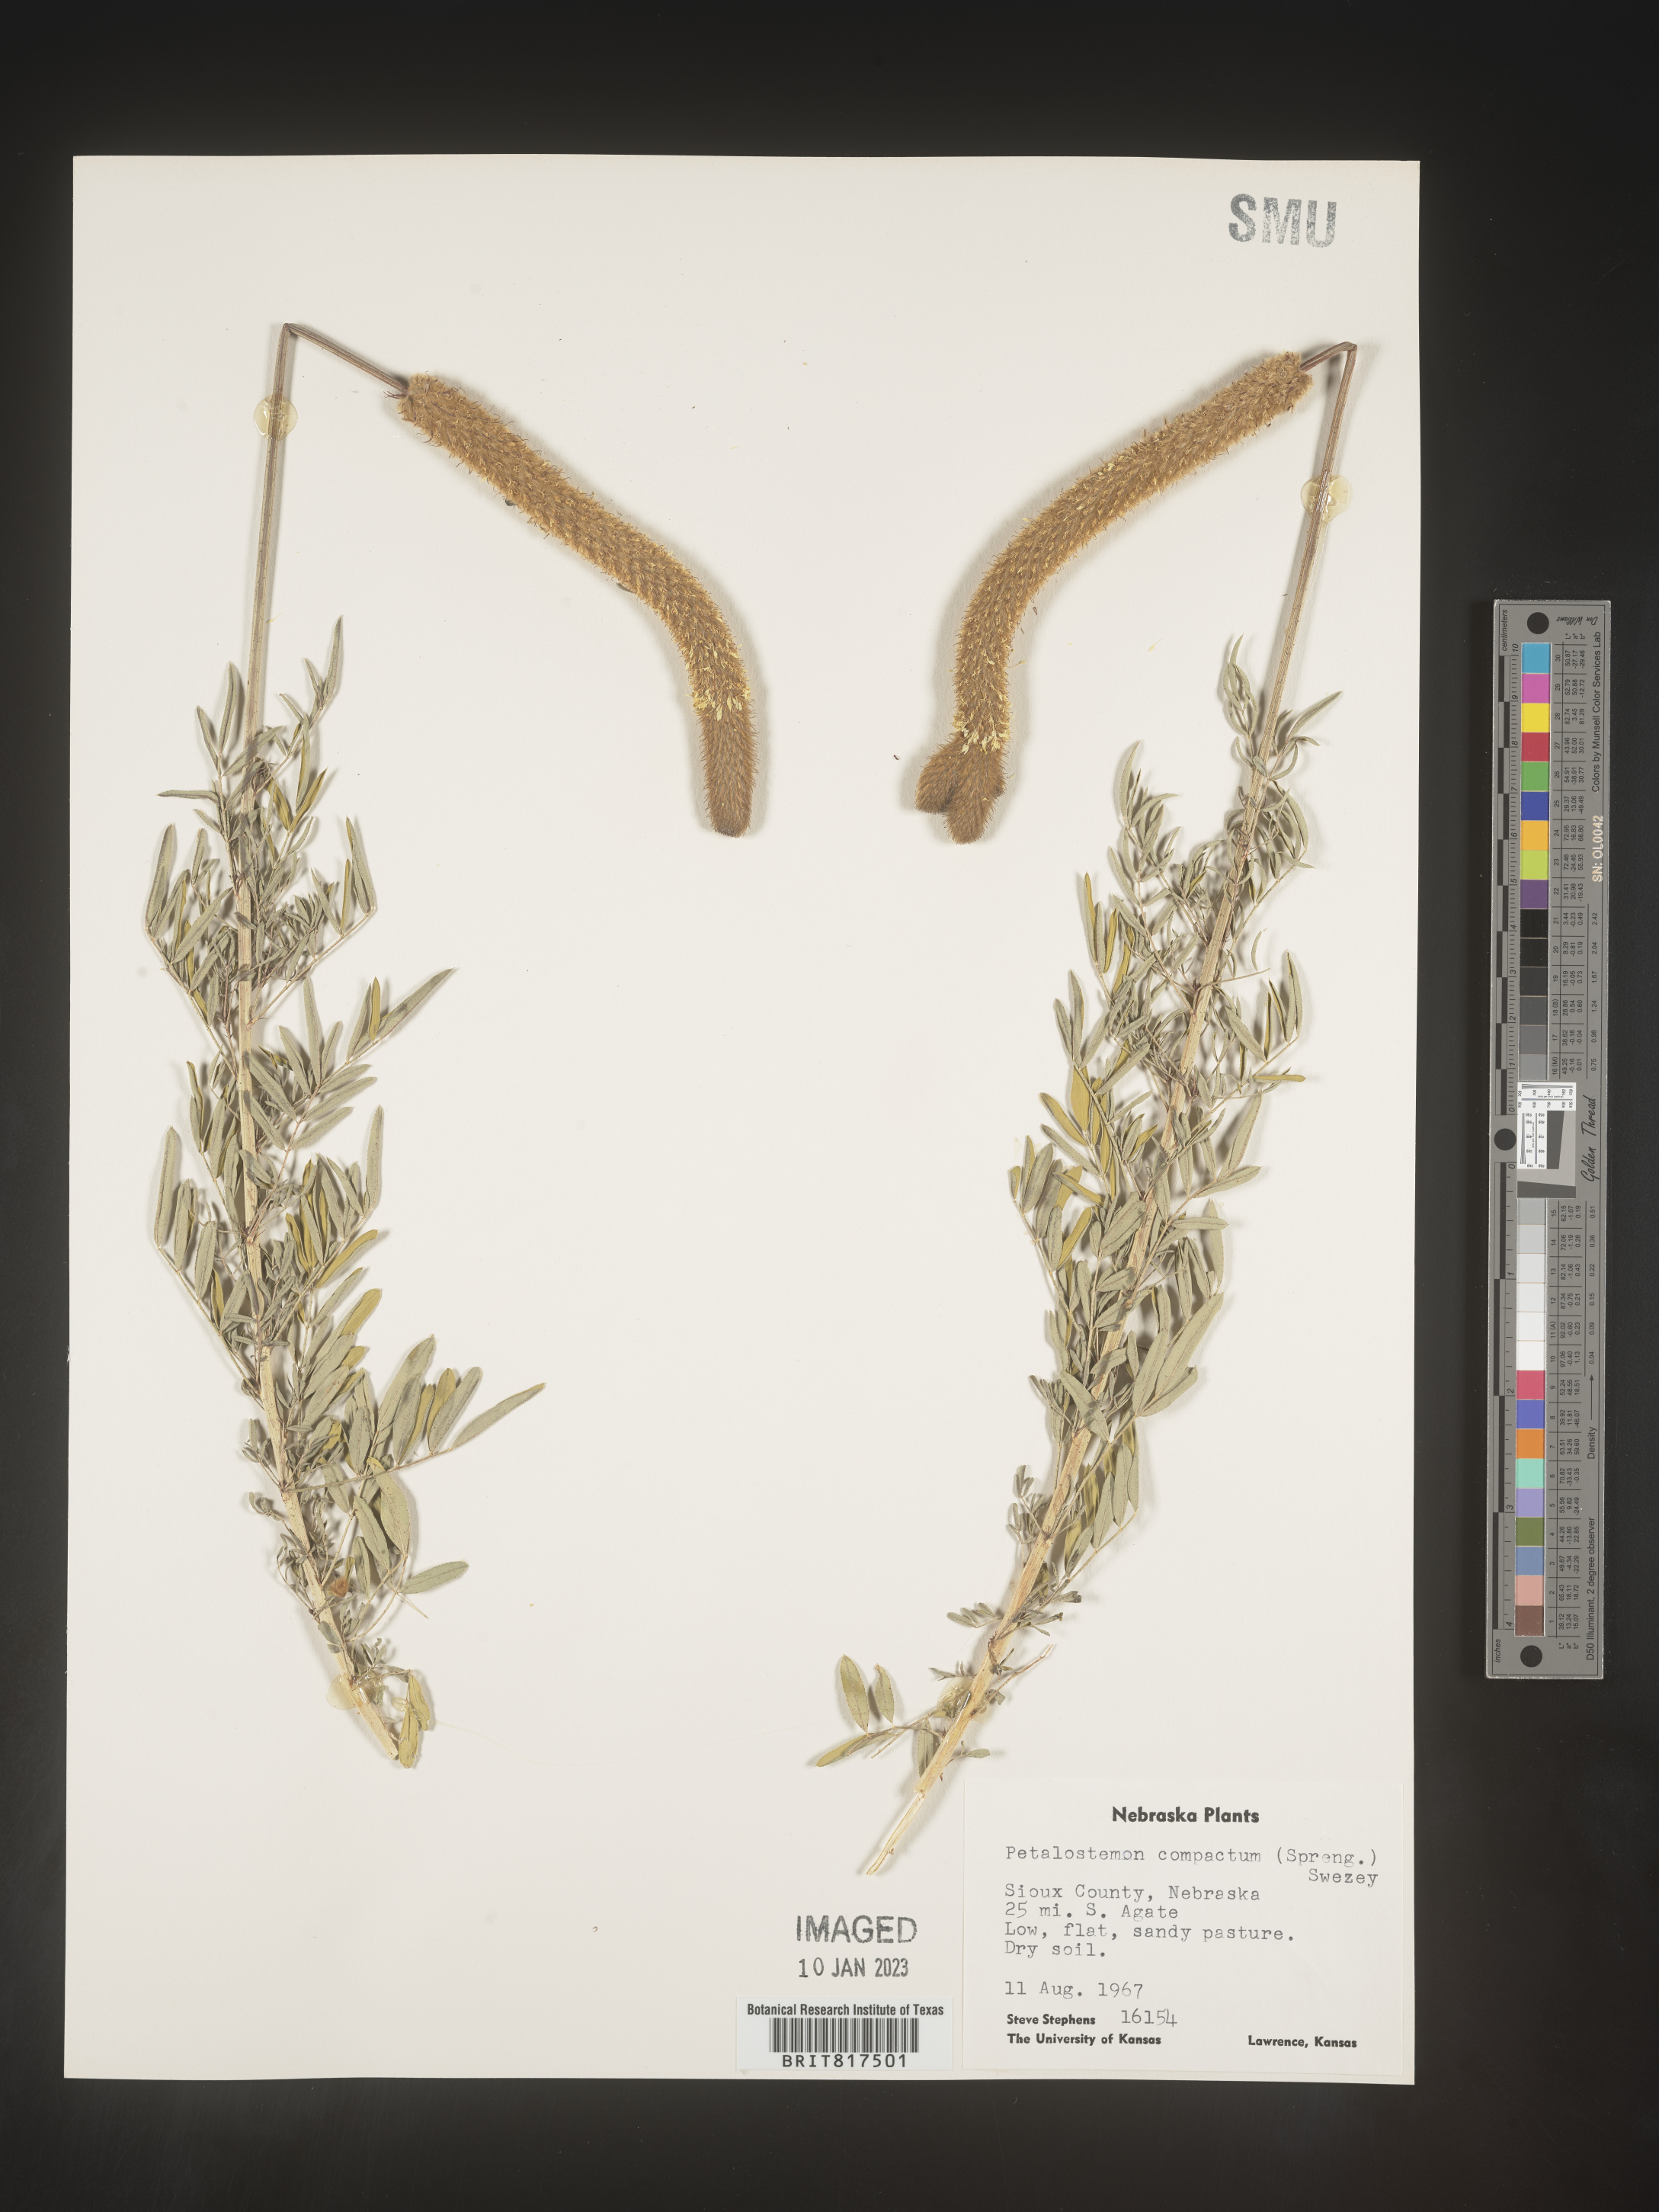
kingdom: Plantae
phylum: Tracheophyta
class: Magnoliopsida
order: Fabales
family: Fabaceae
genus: Dalea
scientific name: Dalea
